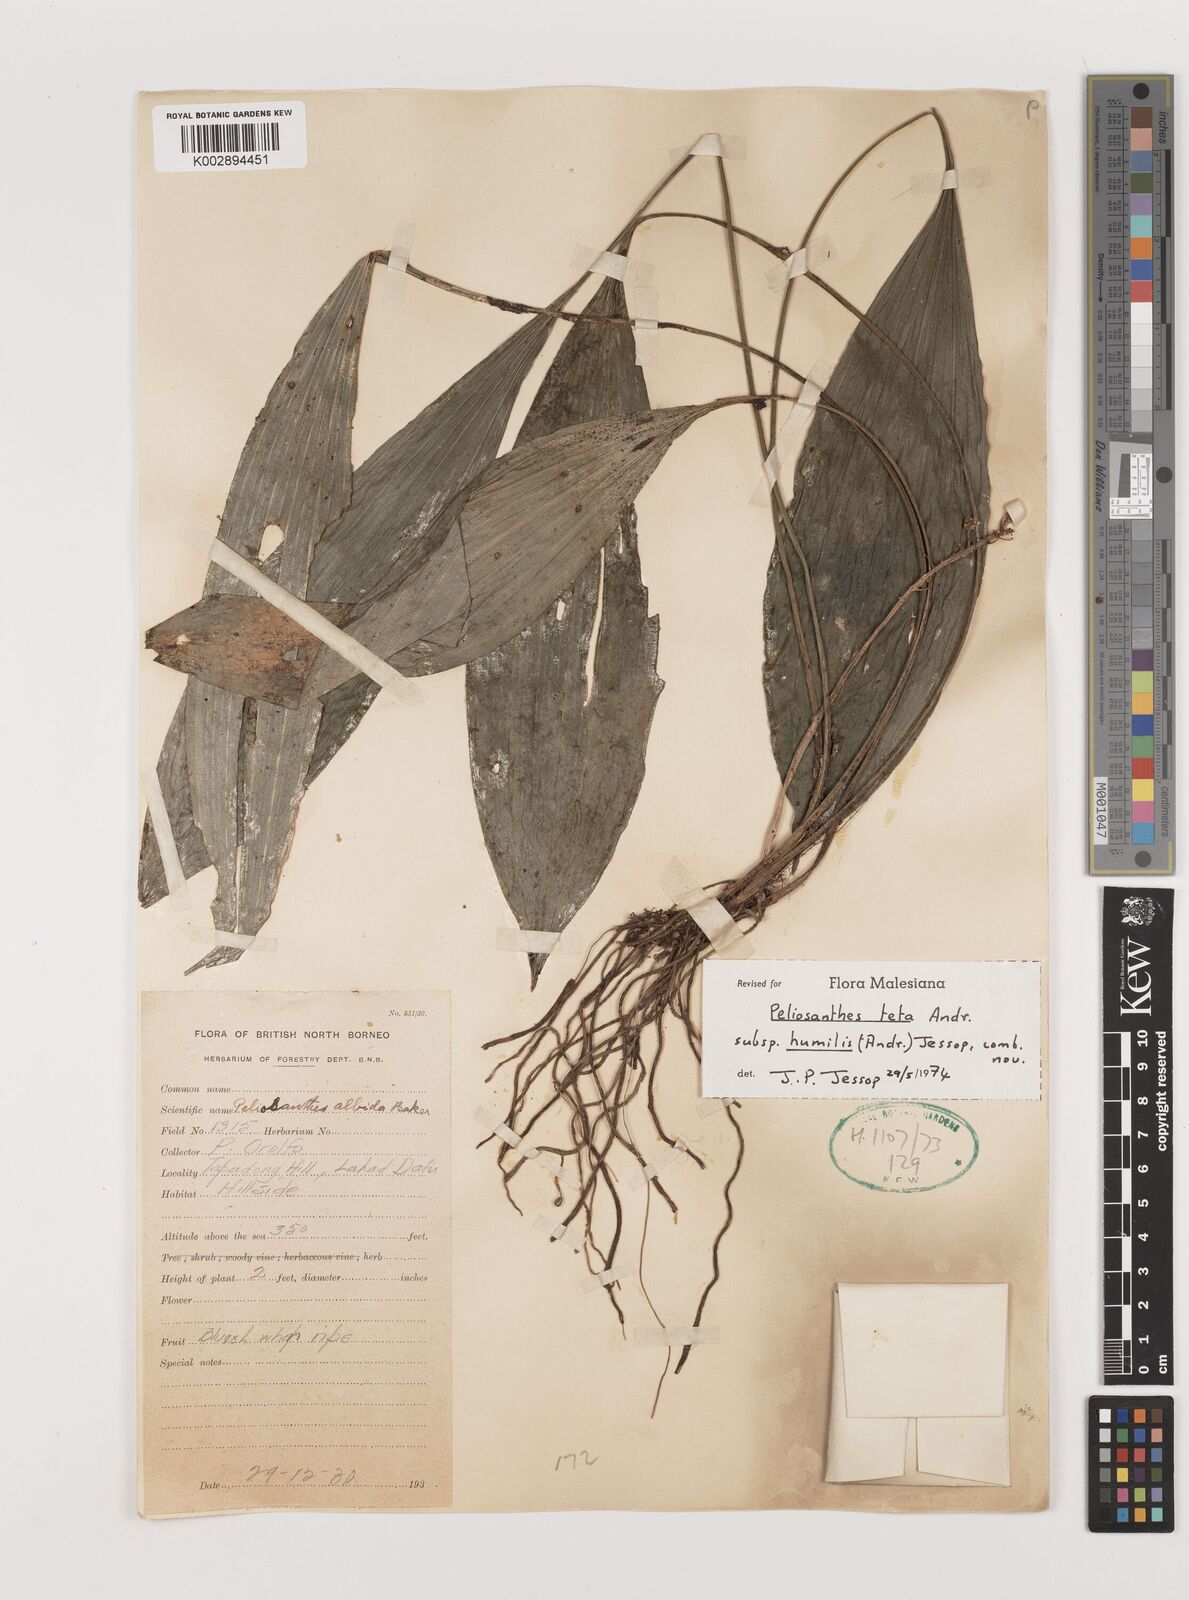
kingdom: Plantae
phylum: Tracheophyta
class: Liliopsida
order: Asparagales
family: Asparagaceae
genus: Peliosanthes
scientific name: Peliosanthes teta
